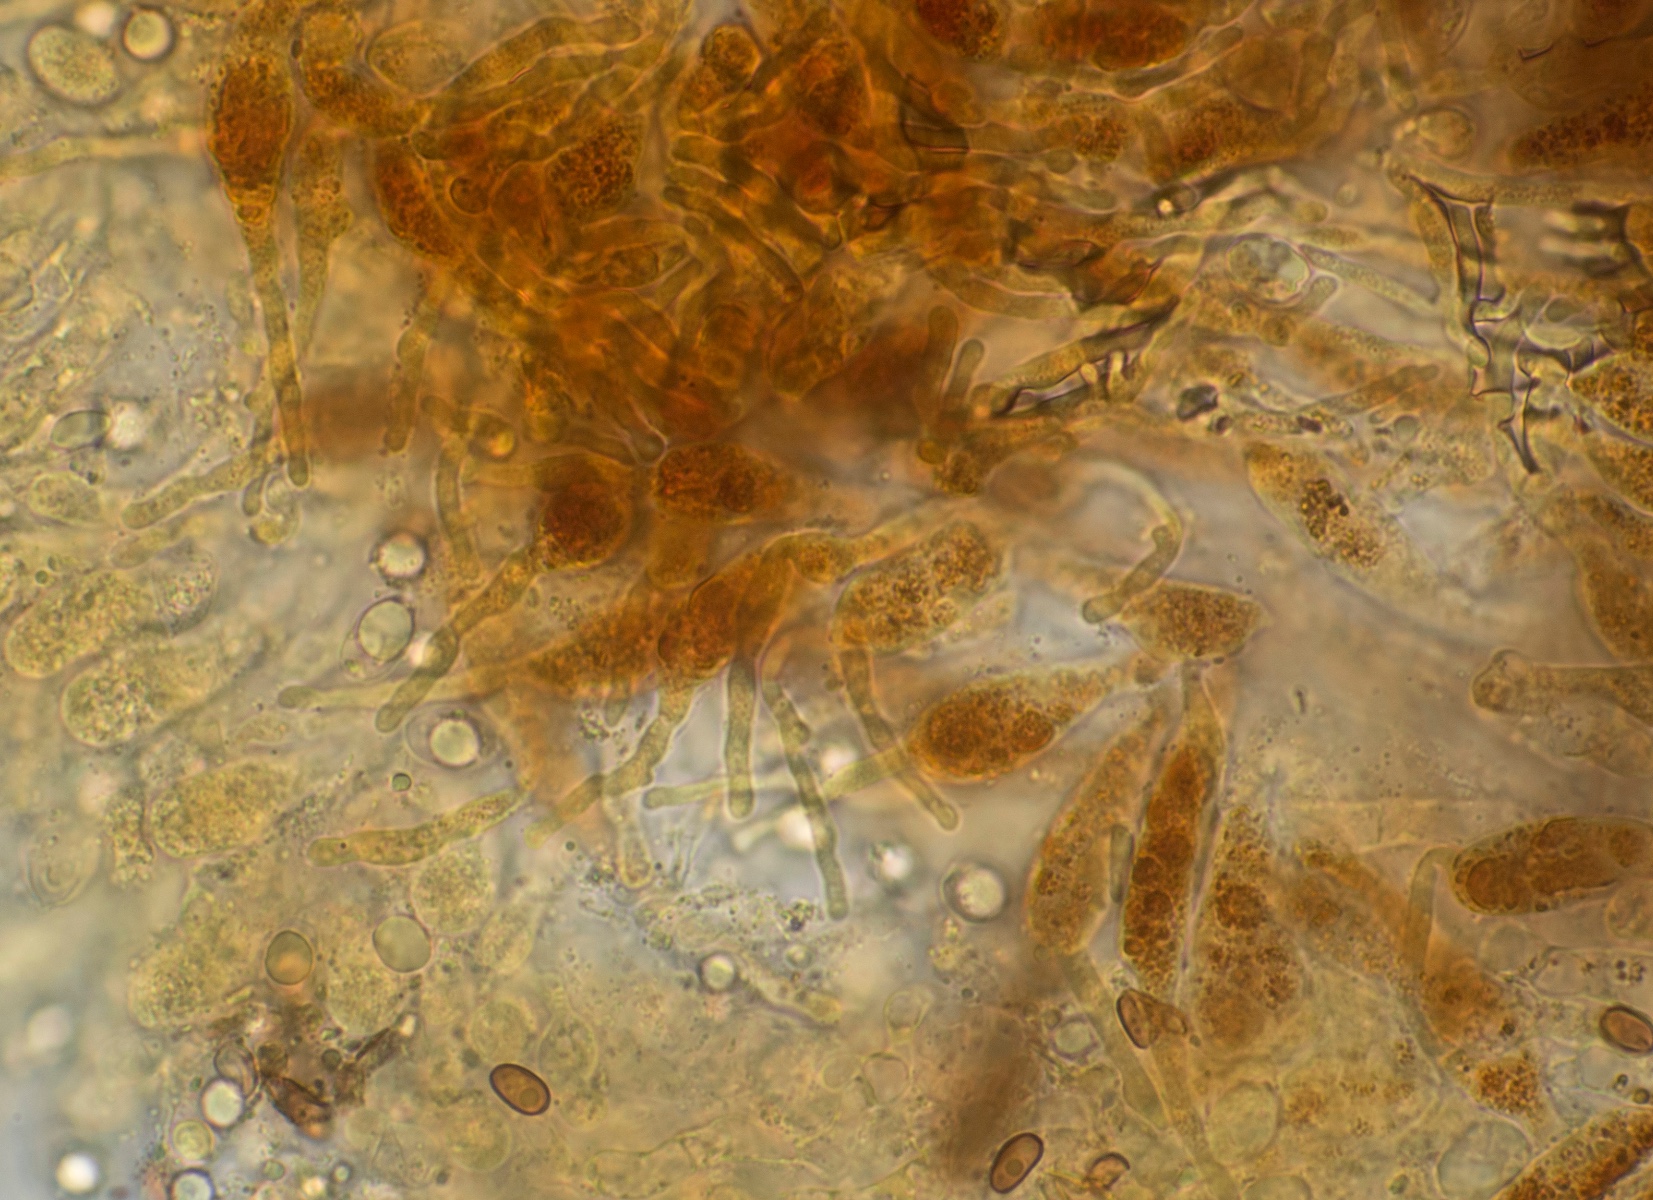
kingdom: Fungi
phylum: Basidiomycota
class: Agaricomycetes
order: Agaricales
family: Mycenaceae
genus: Mycena
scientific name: Mycena rubromarginata
